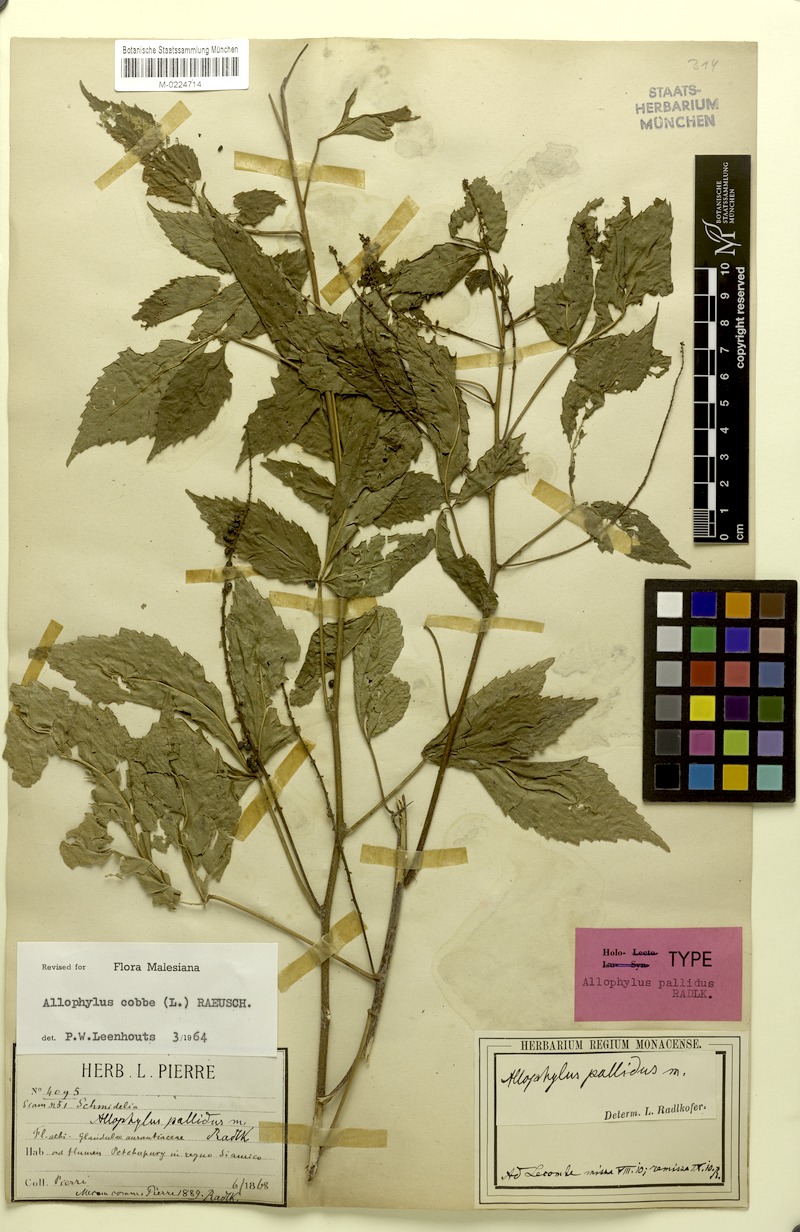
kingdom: Plantae
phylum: Tracheophyta
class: Magnoliopsida
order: Sapindales
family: Sapindaceae
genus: Allophylus
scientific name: Allophylus pallidus
